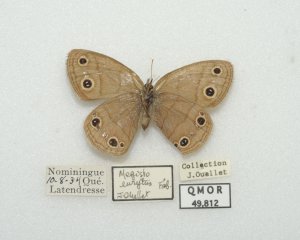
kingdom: Animalia
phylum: Arthropoda
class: Insecta
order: Lepidoptera
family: Nymphalidae
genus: Euptychia
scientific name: Euptychia cymela
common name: Little Wood Satyr
